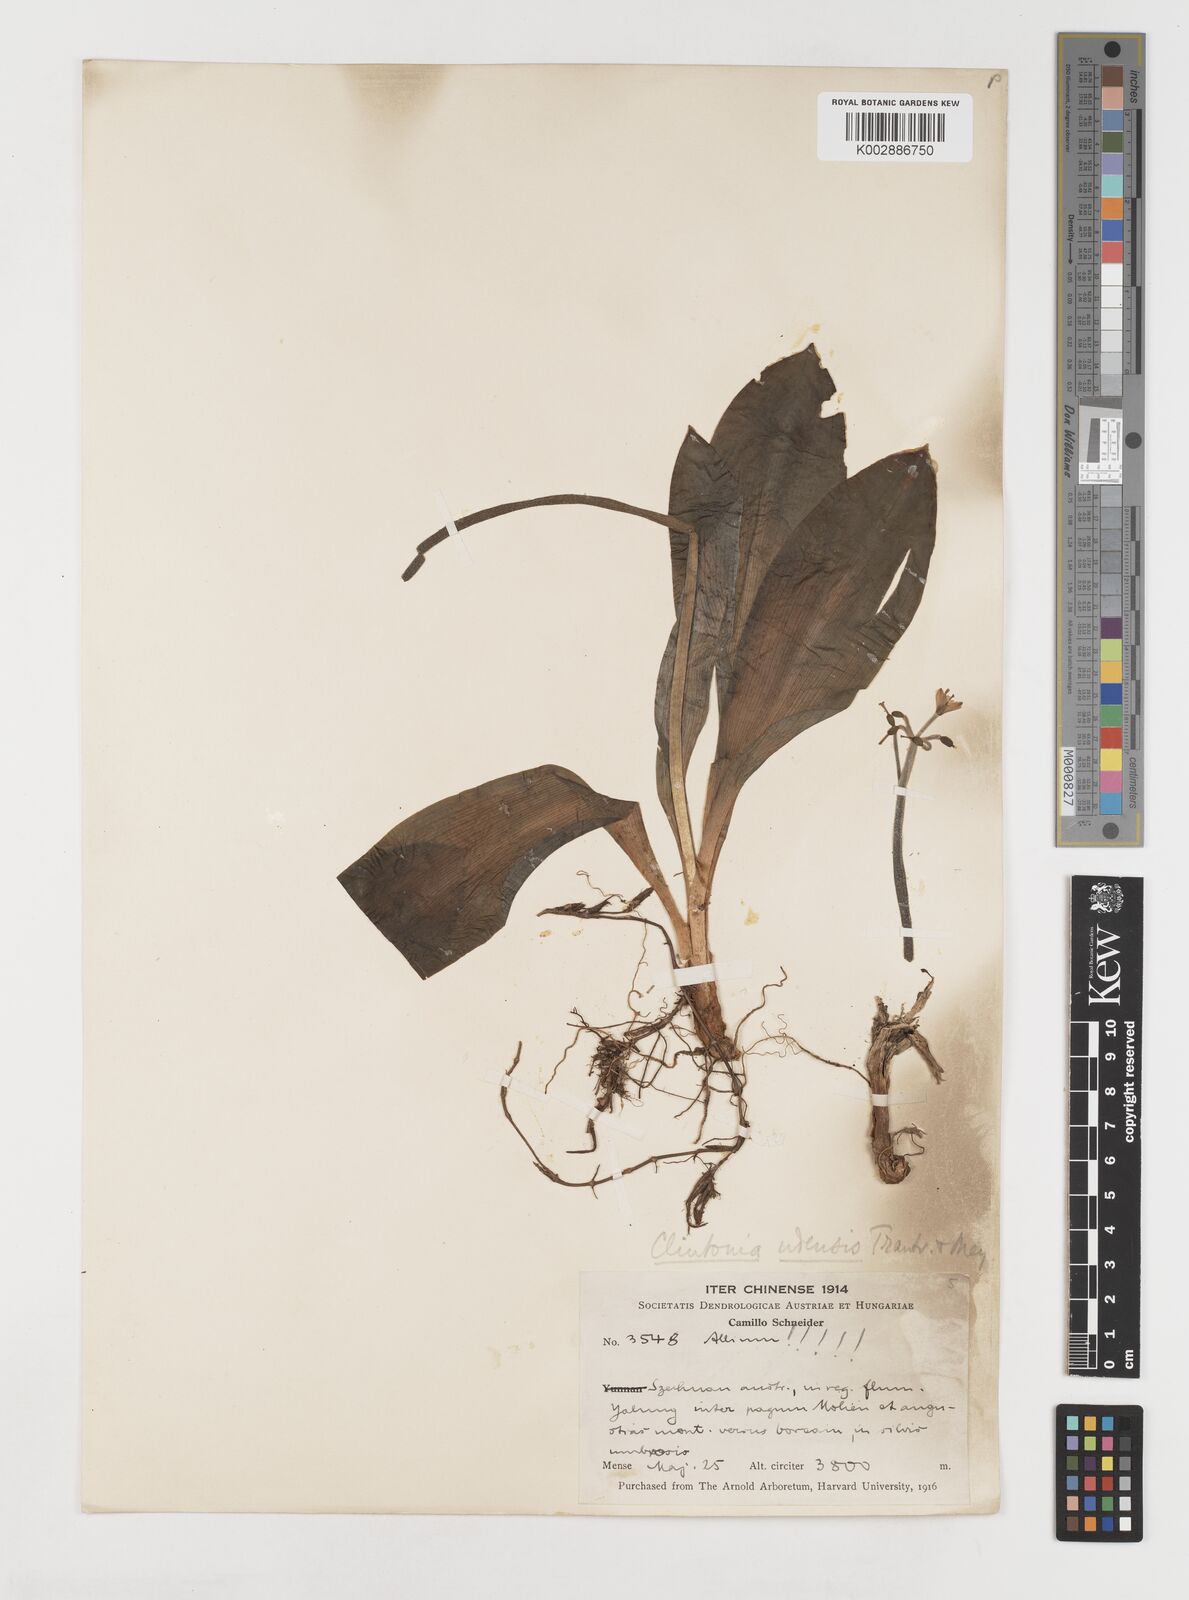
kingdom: Plantae
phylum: Tracheophyta
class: Liliopsida
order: Liliales
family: Liliaceae
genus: Clintonia
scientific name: Clintonia udensis
